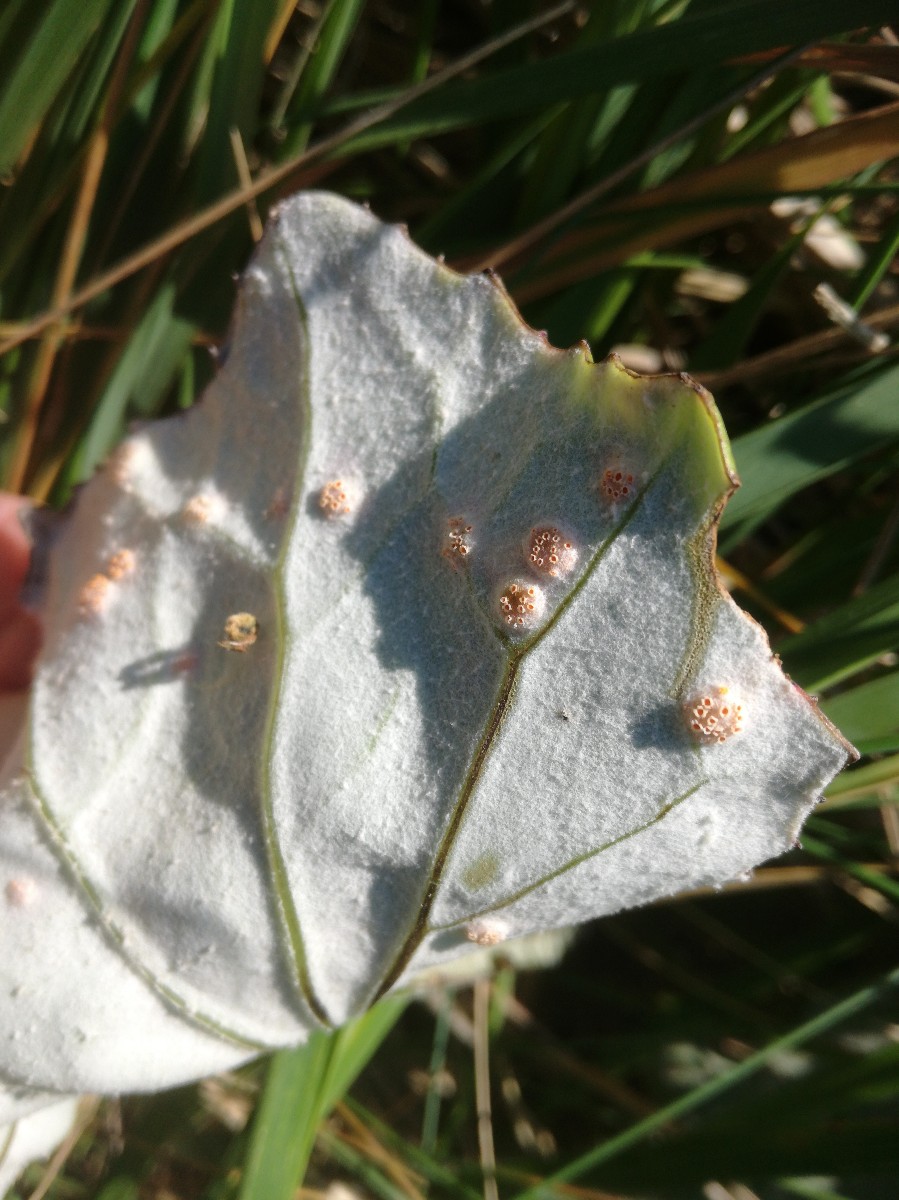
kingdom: Fungi
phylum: Basidiomycota
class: Pucciniomycetes
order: Pucciniales
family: Pucciniaceae
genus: Puccinia
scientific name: Puccinia poarum
